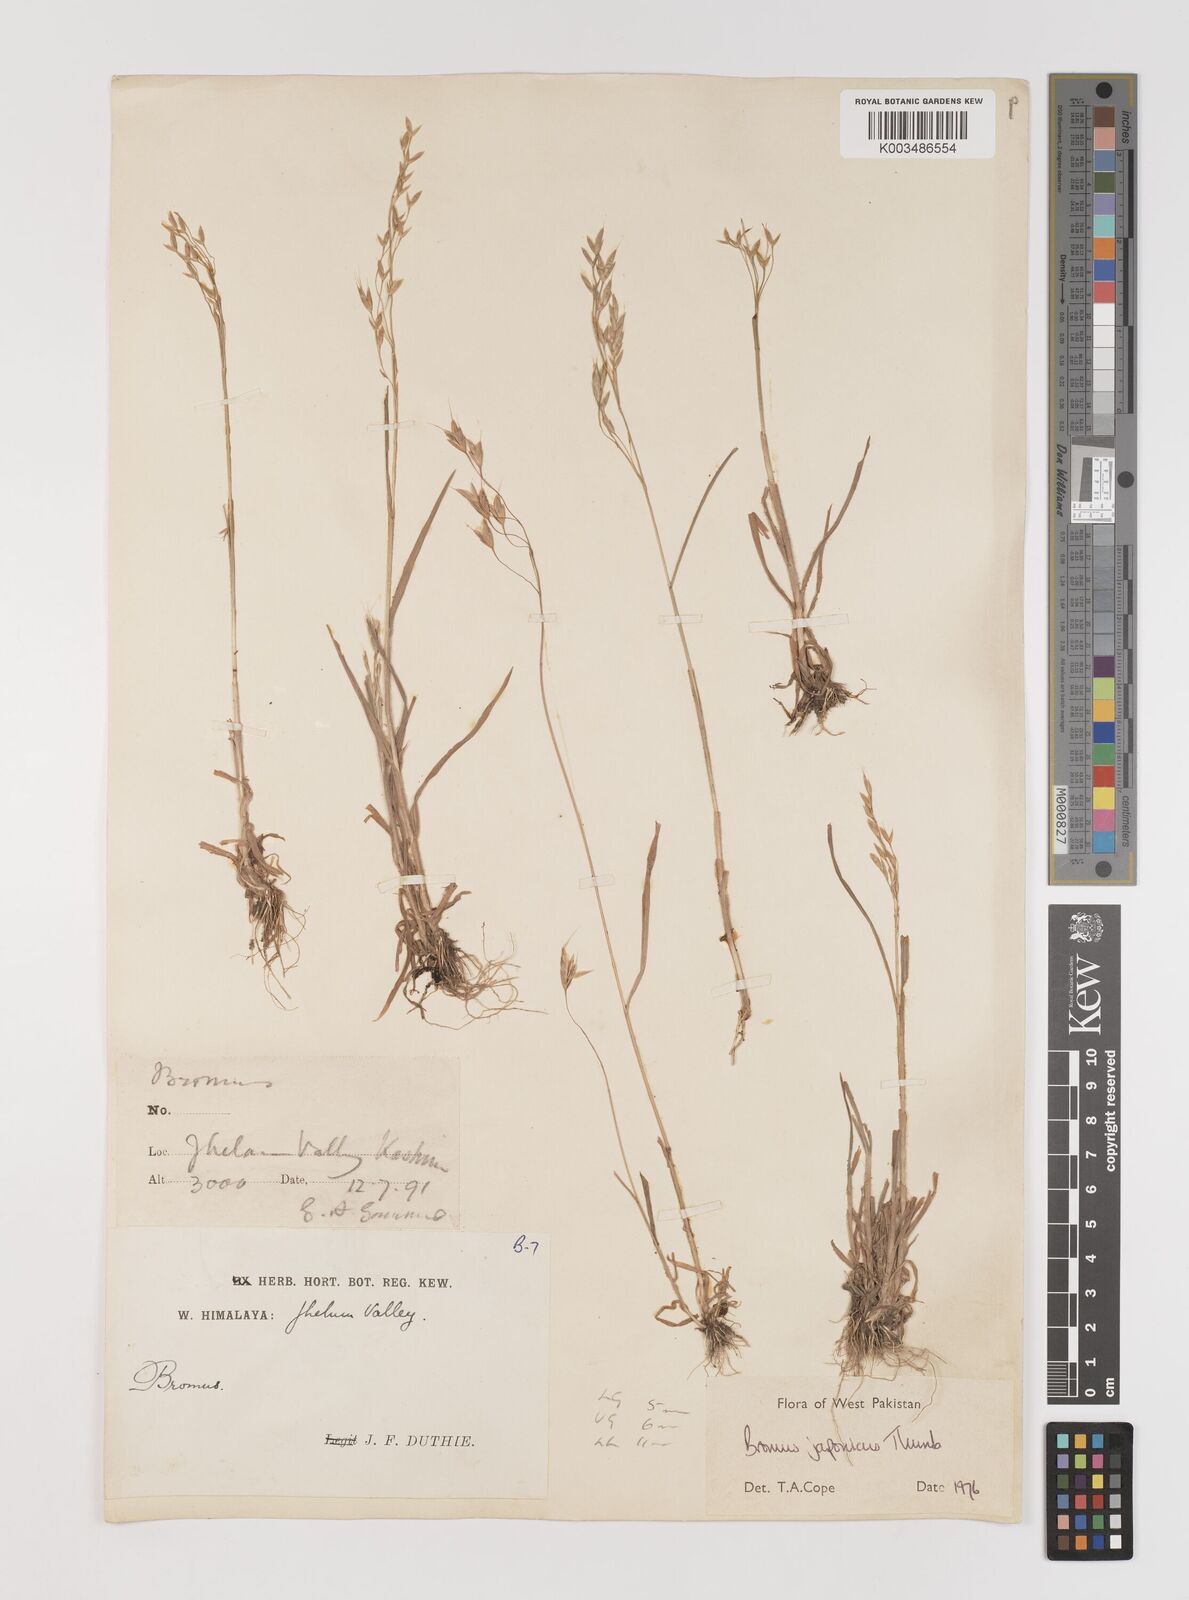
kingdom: Plantae
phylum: Tracheophyta
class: Liliopsida
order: Poales
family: Poaceae
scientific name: Poaceae
